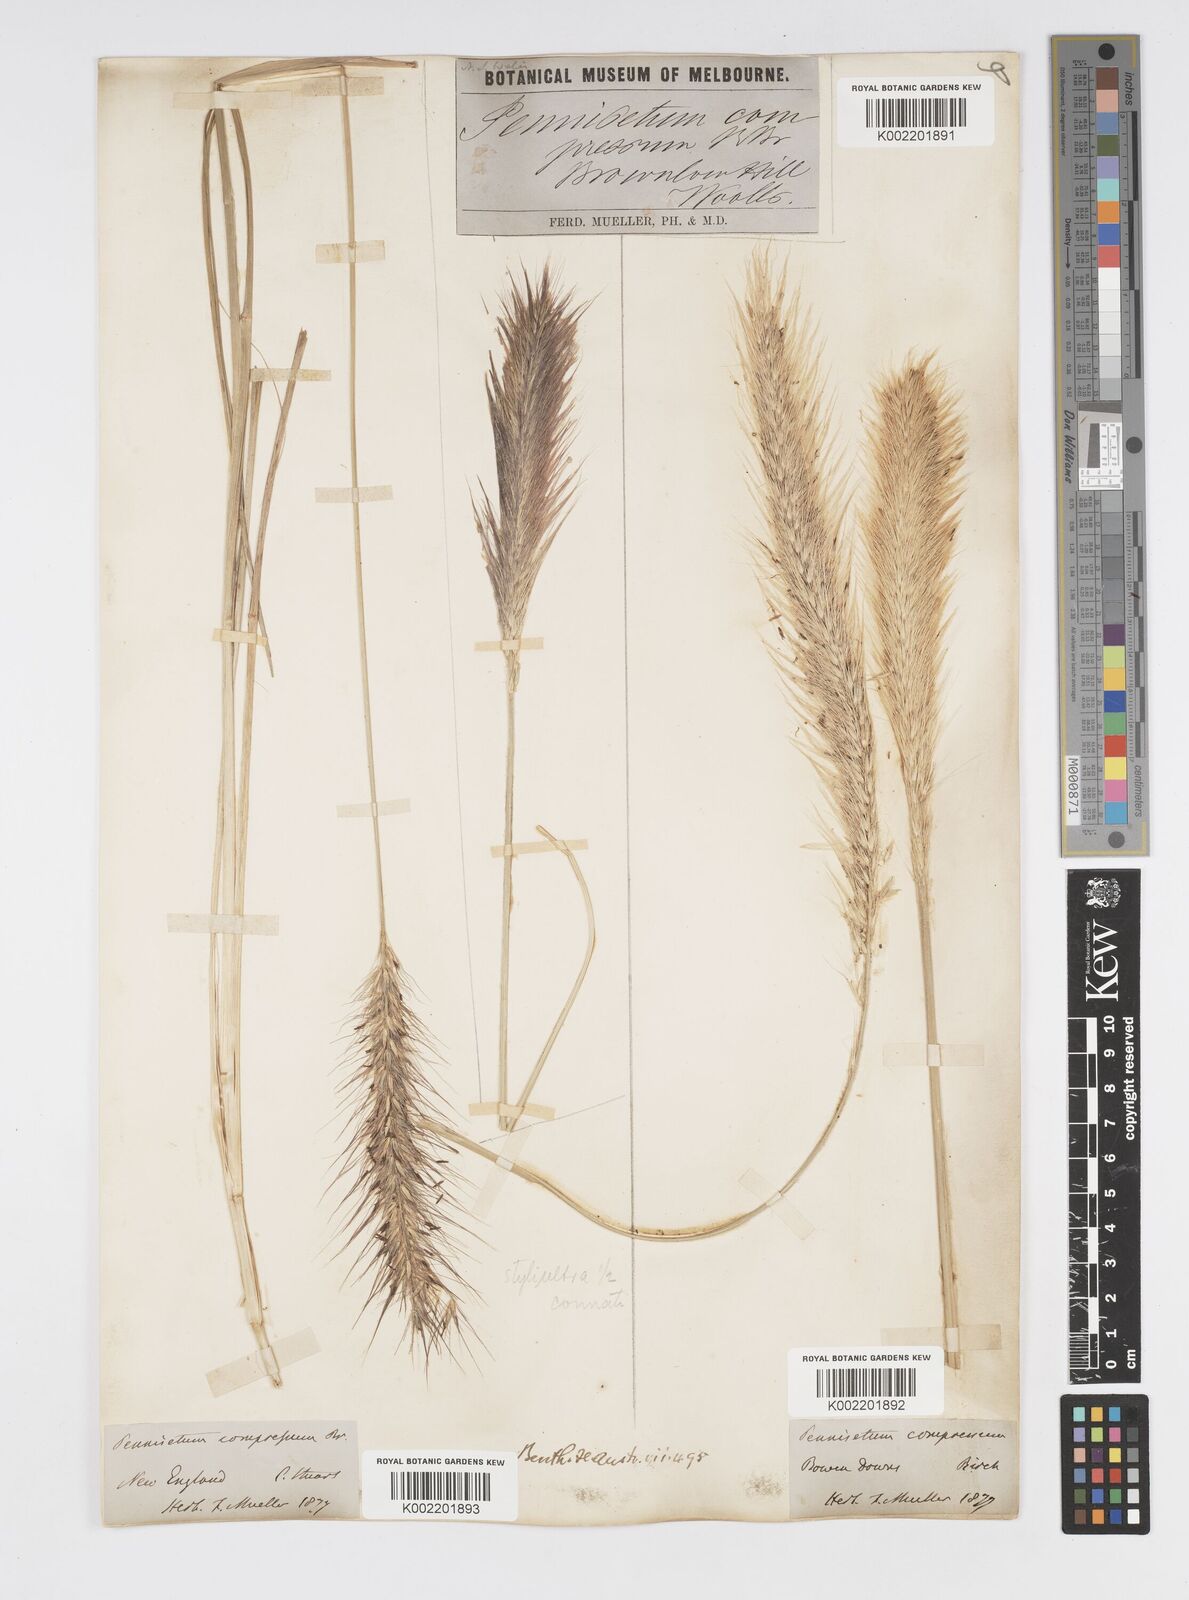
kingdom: Plantae
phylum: Tracheophyta
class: Liliopsida
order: Poales
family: Poaceae
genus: Cenchrus
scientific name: Cenchrus alopecuroides
